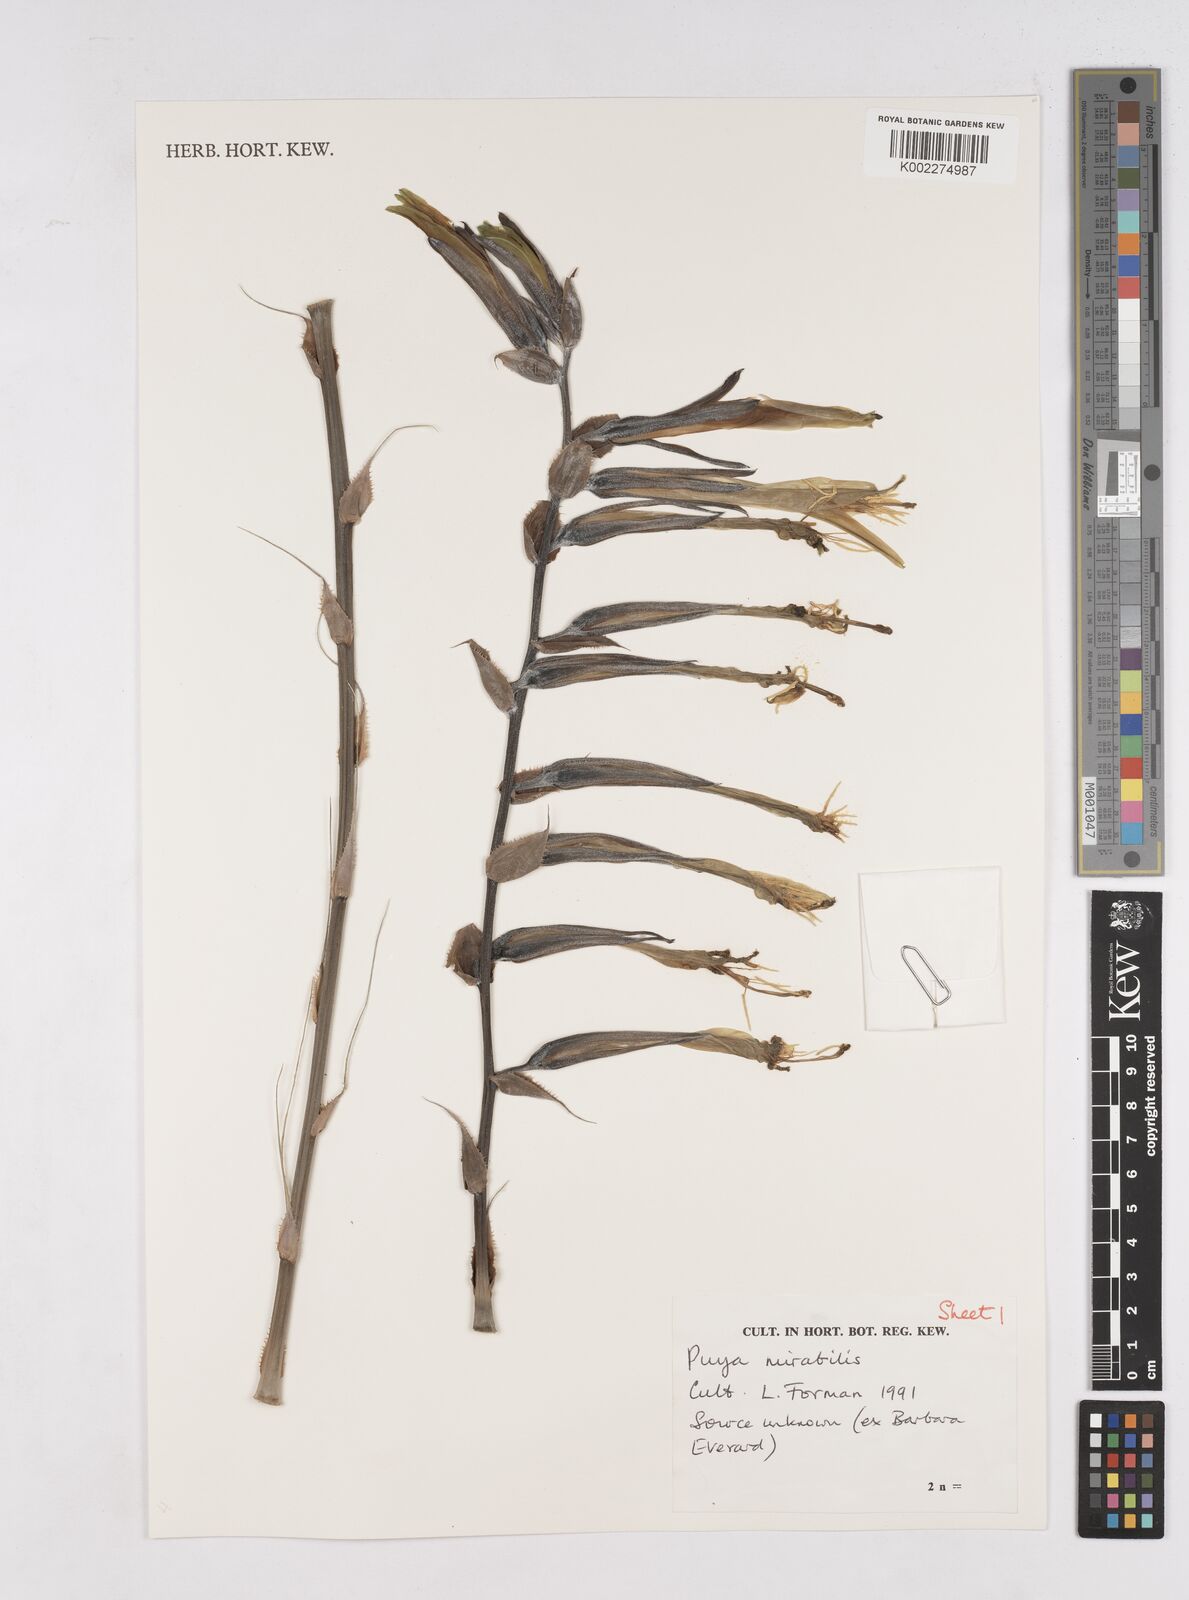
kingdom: Plantae
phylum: Tracheophyta
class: Liliopsida
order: Poales
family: Bromeliaceae
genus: Puya
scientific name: Puya
